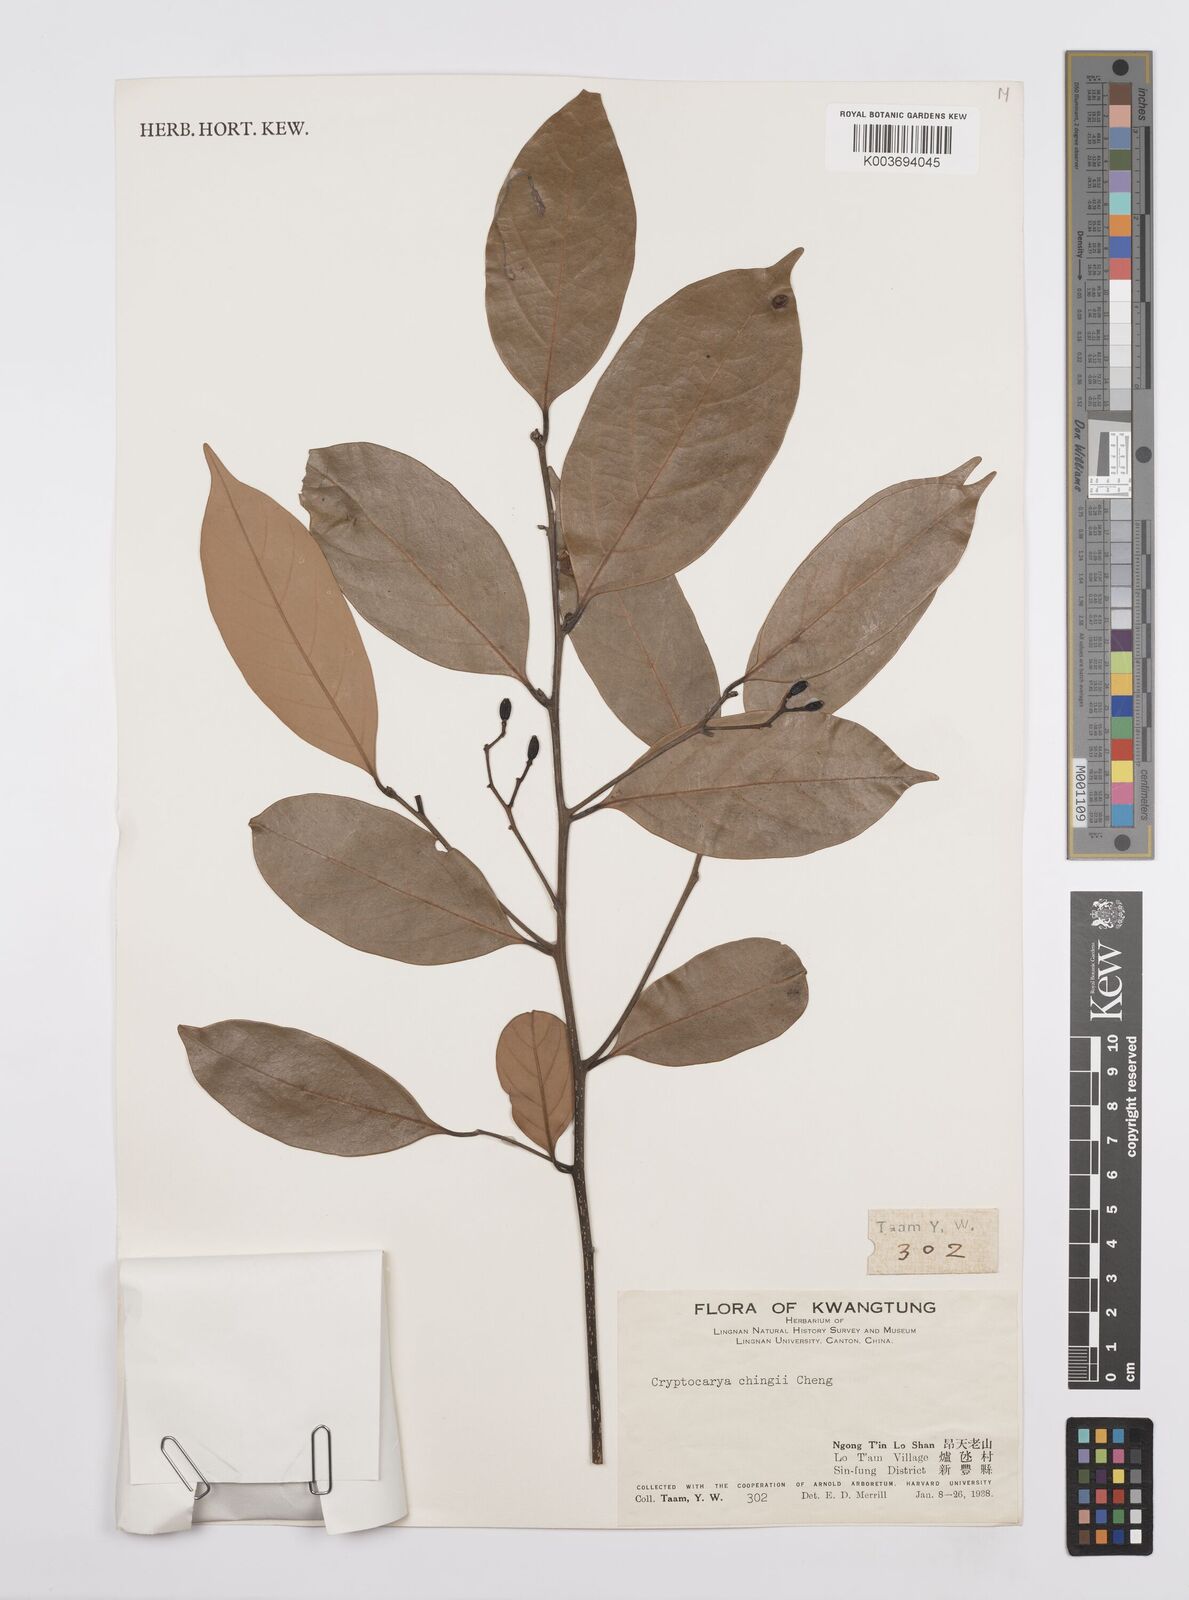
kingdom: Plantae
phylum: Tracheophyta
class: Magnoliopsida
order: Laurales
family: Lauraceae
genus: Cryptocarya
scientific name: Cryptocarya chingii
